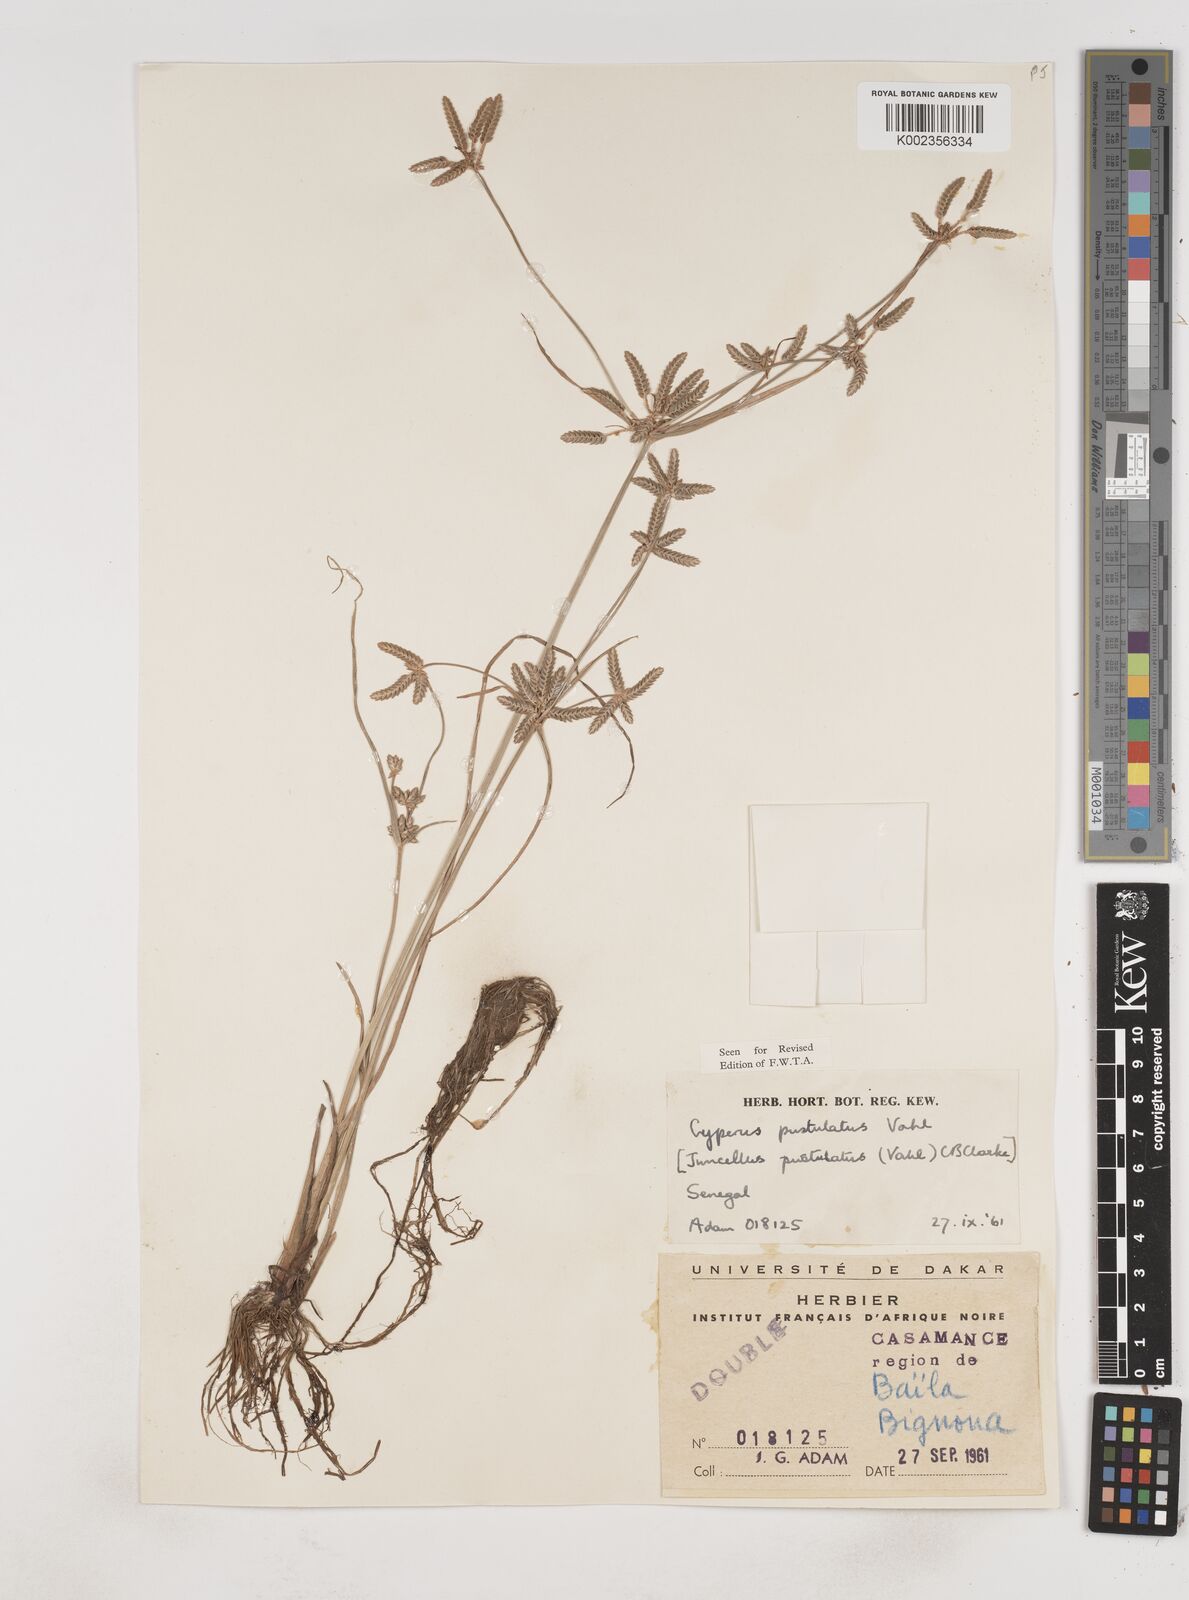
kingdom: Plantae
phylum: Tracheophyta
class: Liliopsida
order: Poales
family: Cyperaceae
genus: Cyperus
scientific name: Cyperus pustulatus
